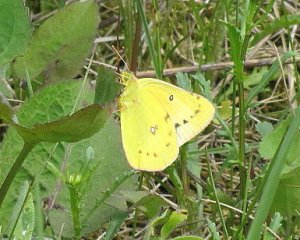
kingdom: Animalia
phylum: Arthropoda
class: Insecta
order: Lepidoptera
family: Pieridae
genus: Colias
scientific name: Colias philodice
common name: Clouded Sulphur
